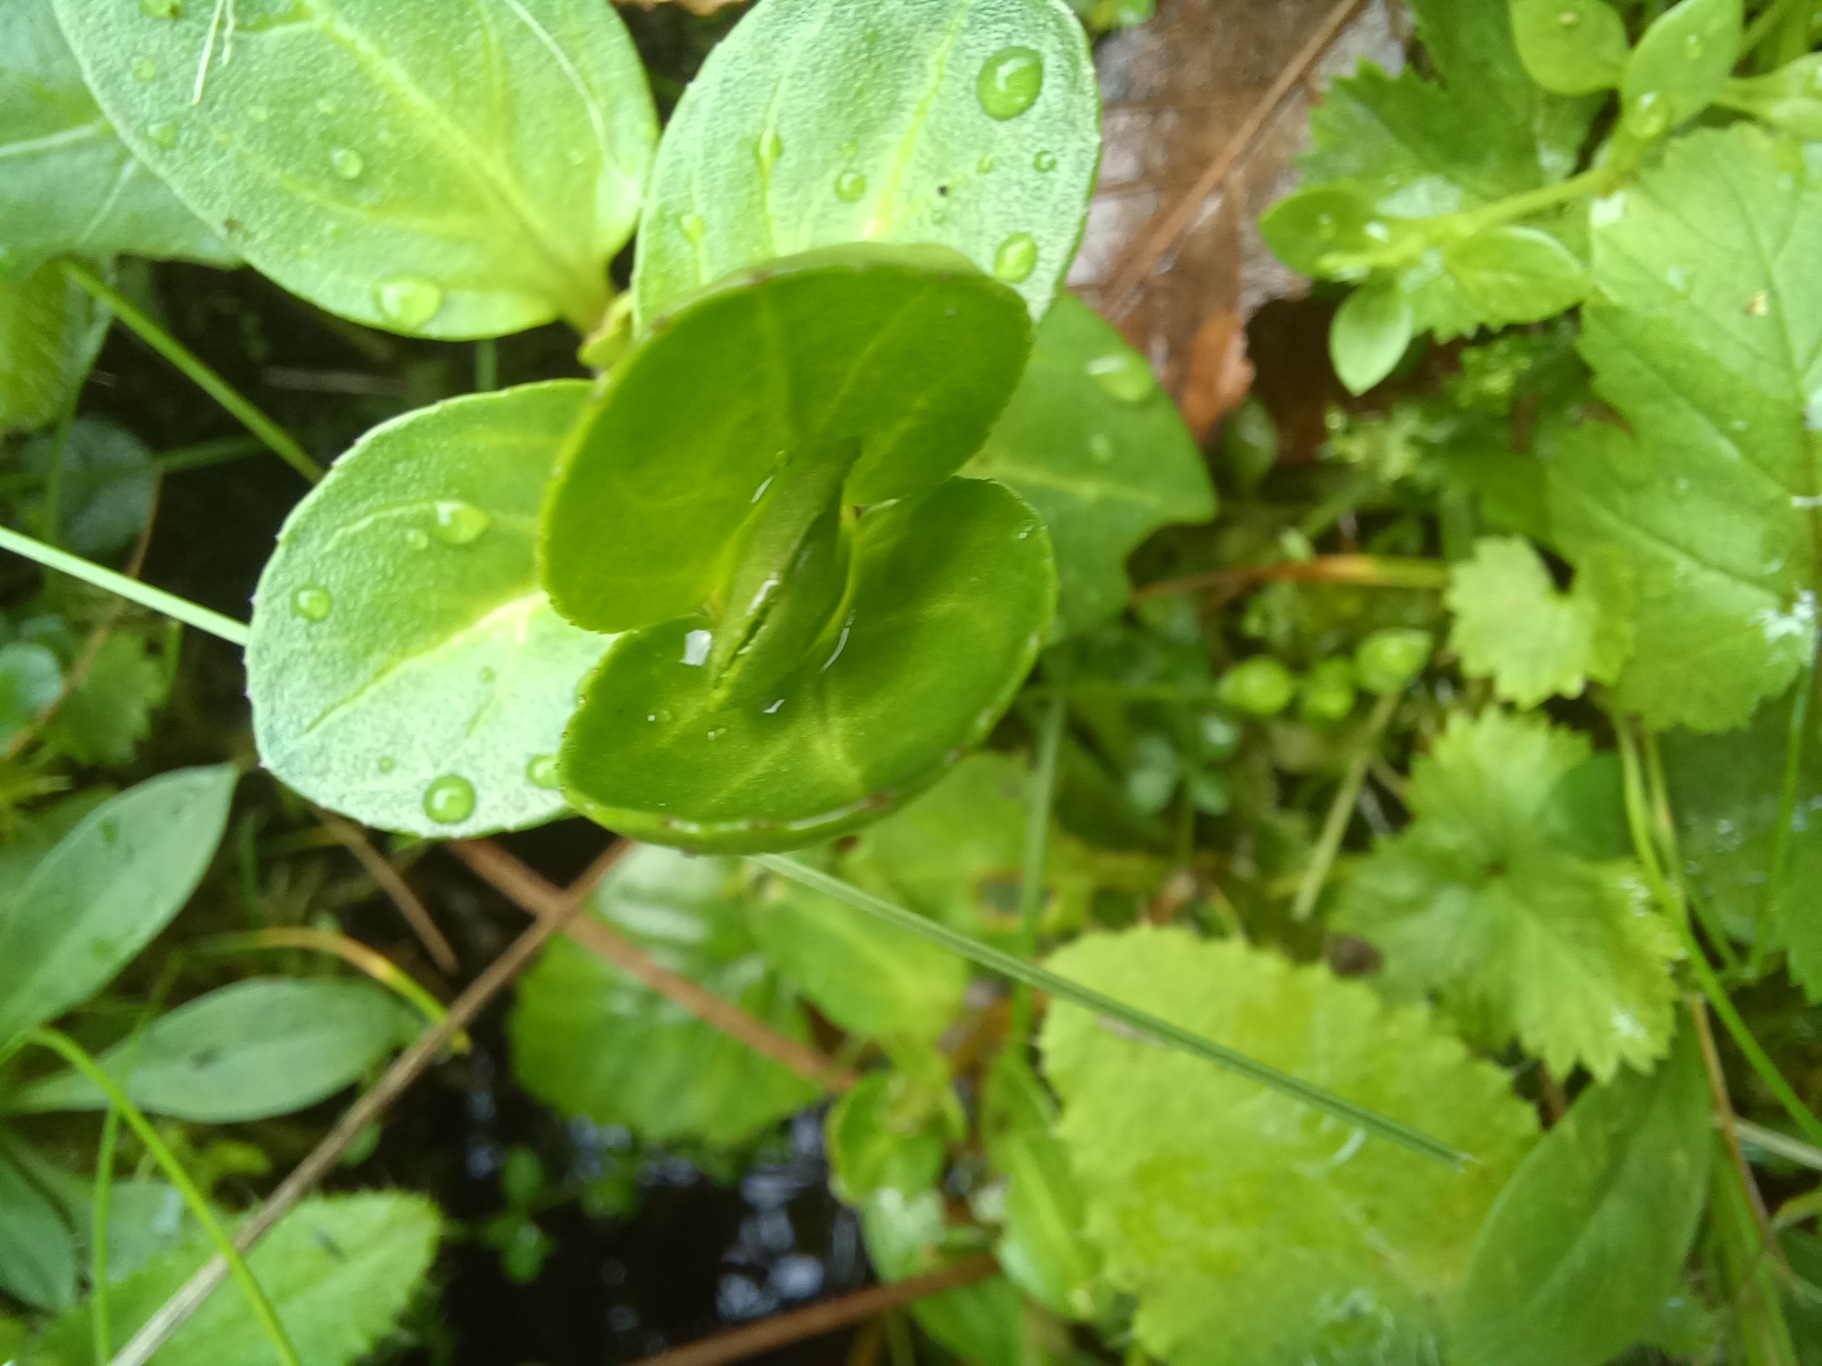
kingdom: Plantae
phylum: Tracheophyta
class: Magnoliopsida
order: Lamiales
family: Plantaginaceae
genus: Veronica
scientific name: Veronica beccabunga
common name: Tykbladet ærenpris
